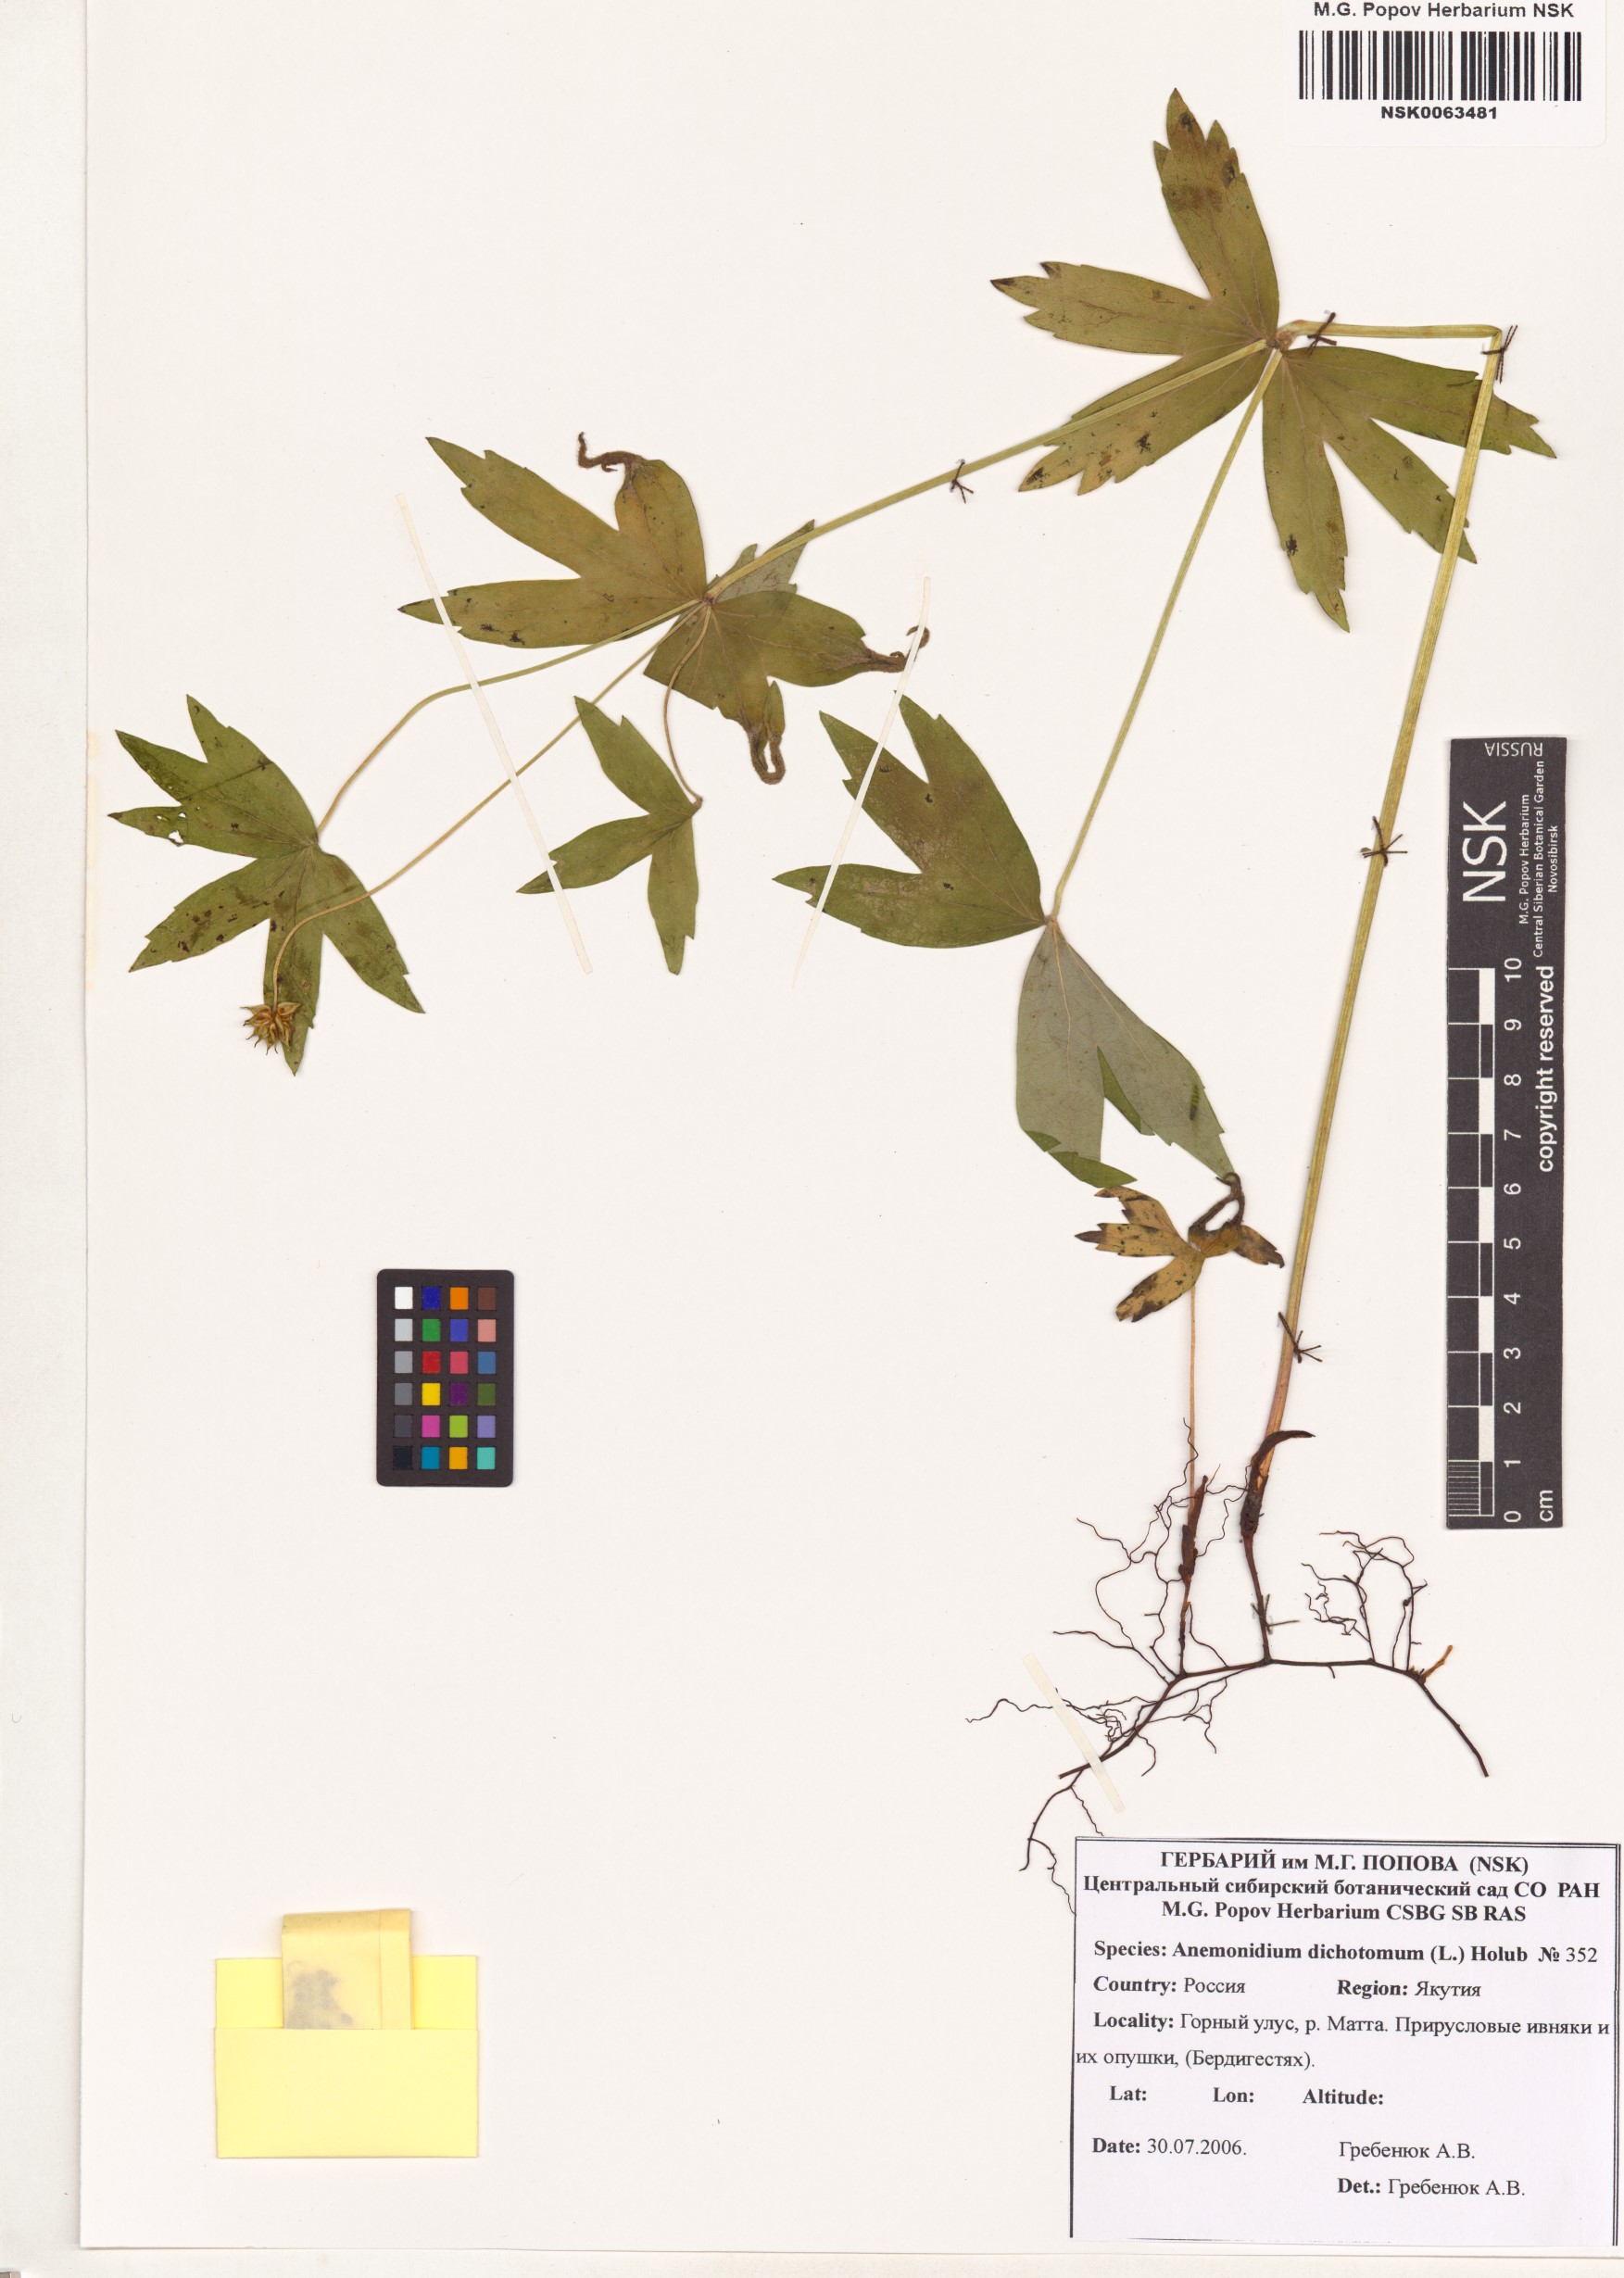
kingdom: Plantae
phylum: Tracheophyta
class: Magnoliopsida
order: Ranunculales
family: Ranunculaceae
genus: Anemonastrum
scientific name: Anemonastrum dichotomum
